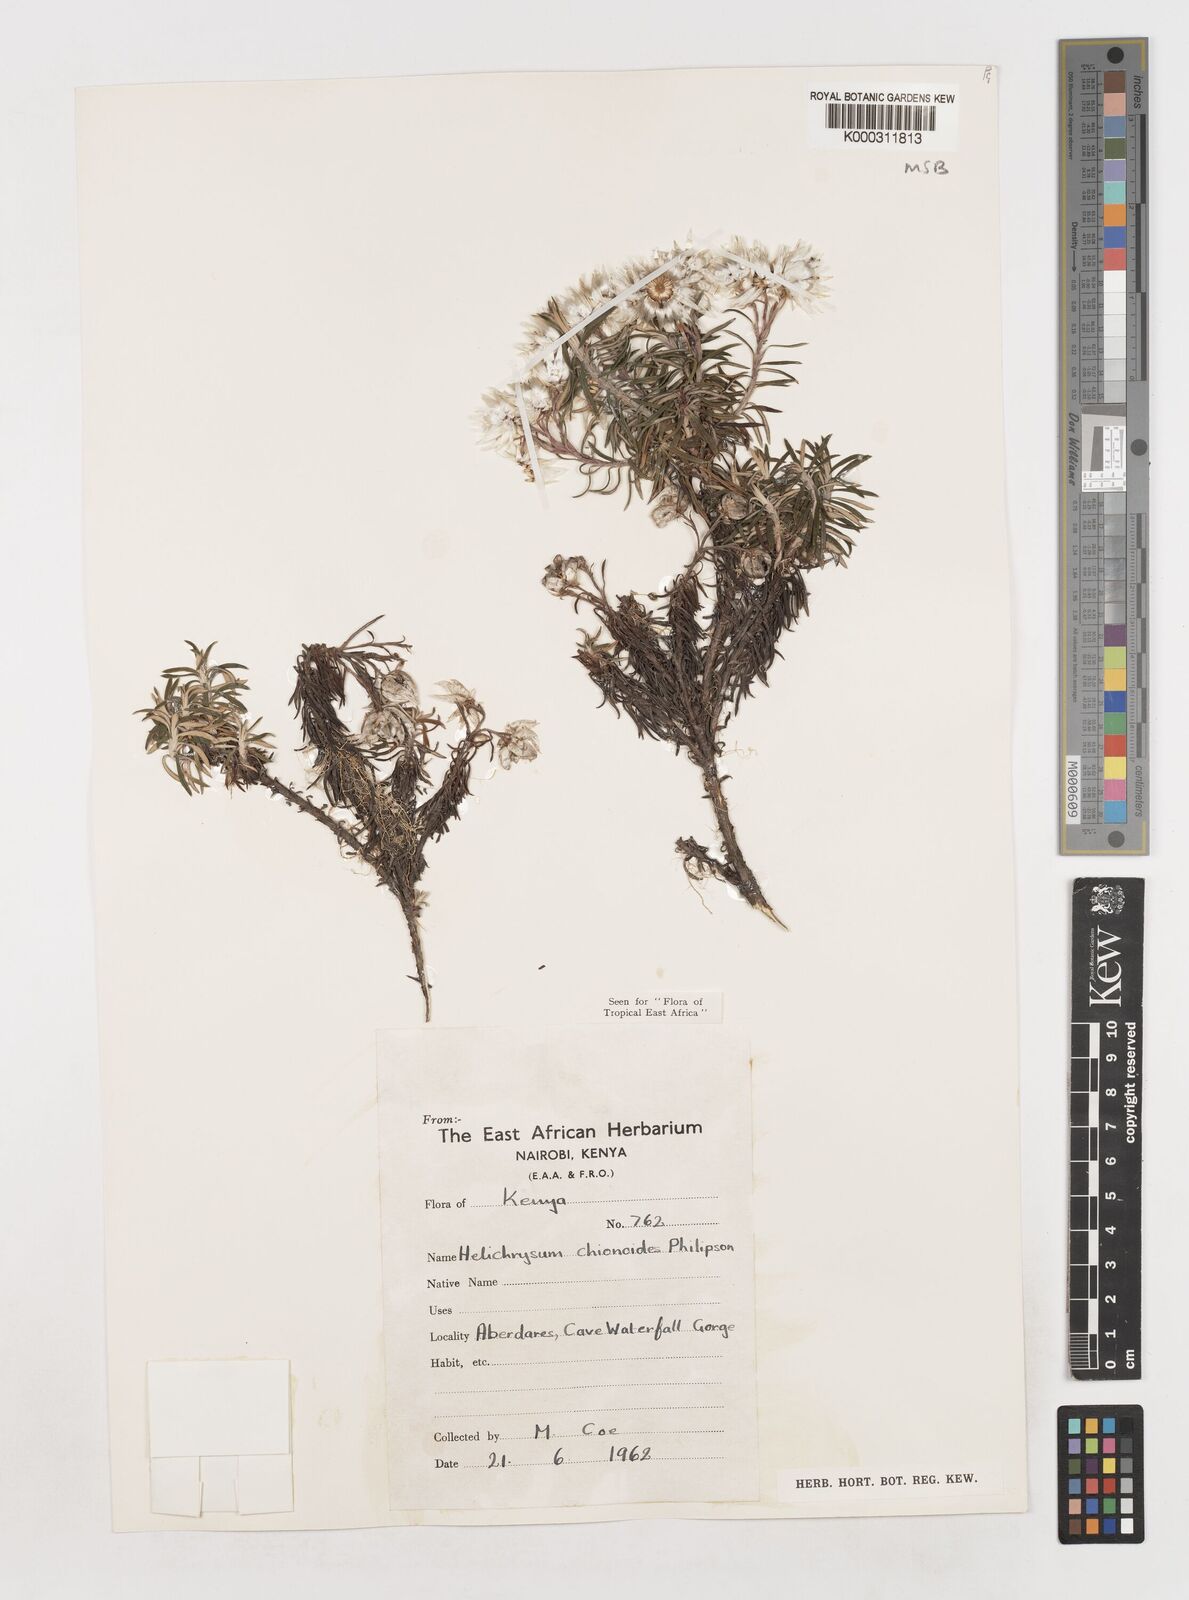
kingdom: Plantae
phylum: Tracheophyta
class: Magnoliopsida
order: Asterales
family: Asteraceae
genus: Helichrysum
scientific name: Helichrysum chionoides
